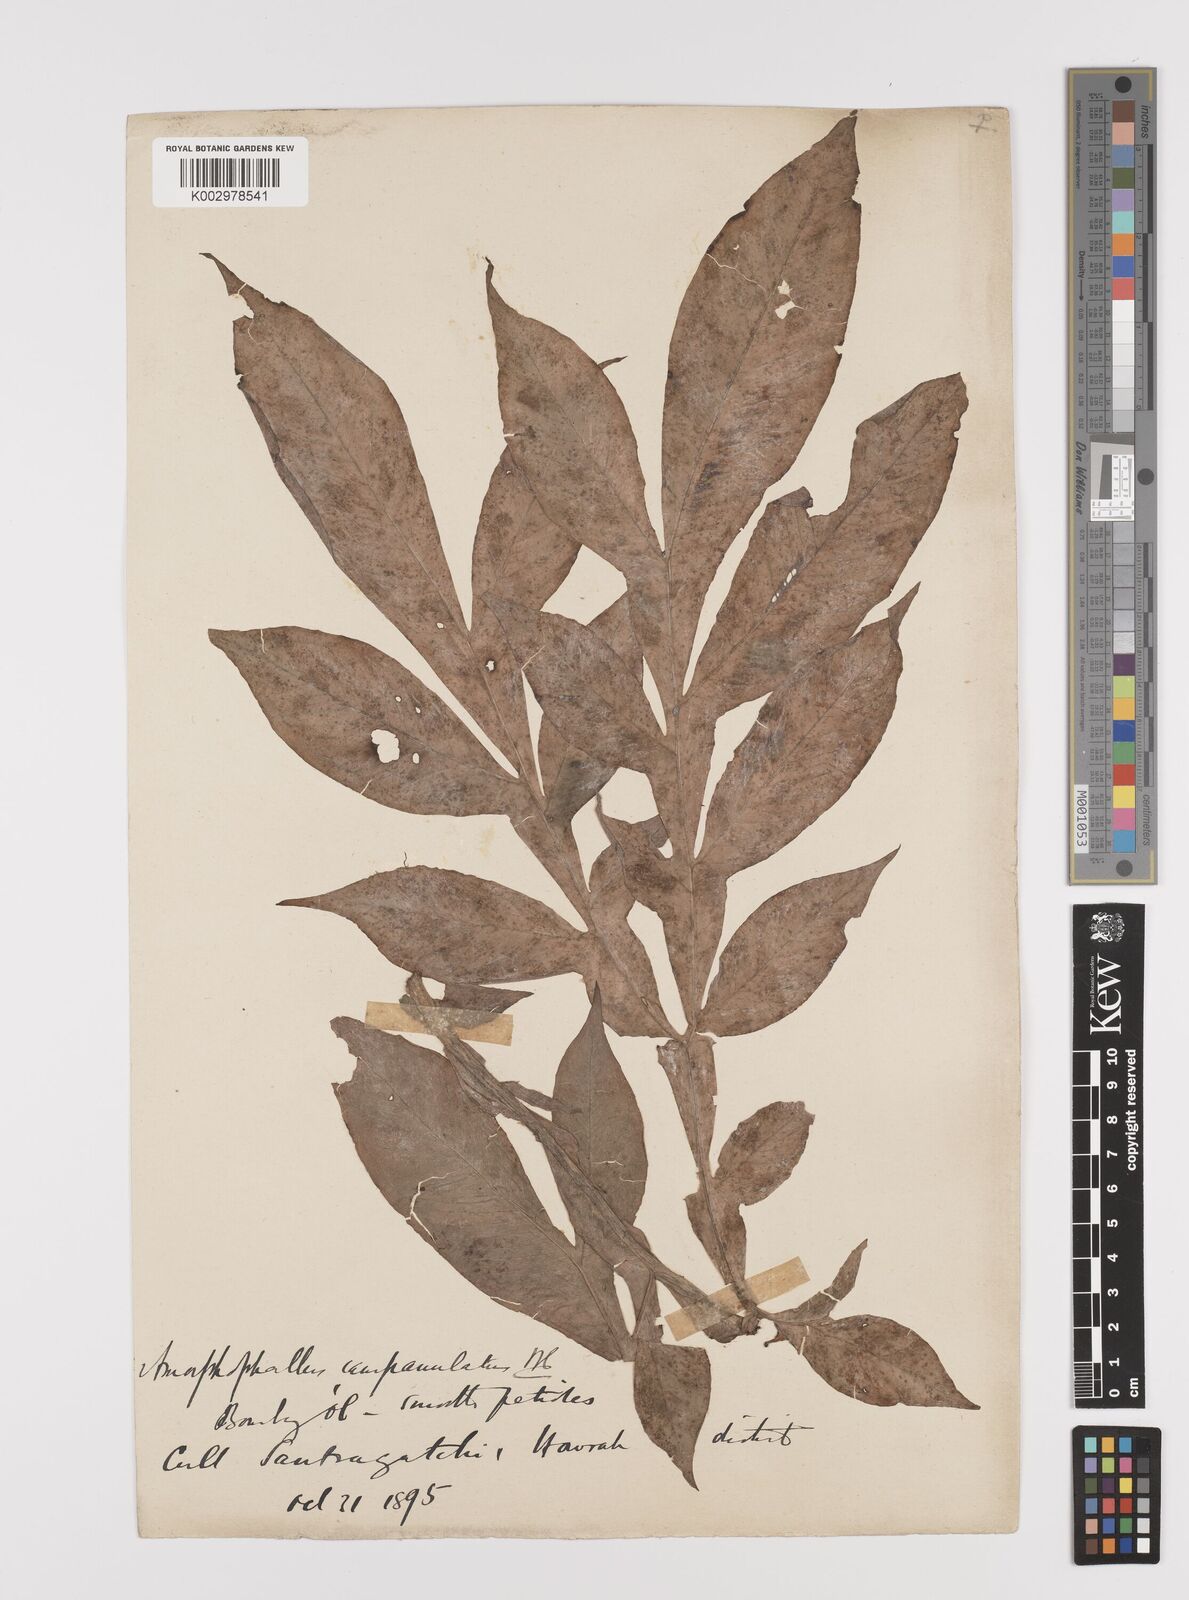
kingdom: Plantae
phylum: Tracheophyta
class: Liliopsida
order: Alismatales
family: Araceae
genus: Amorphophallus
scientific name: Amorphophallus paeoniifolius
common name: Telinga-potato
